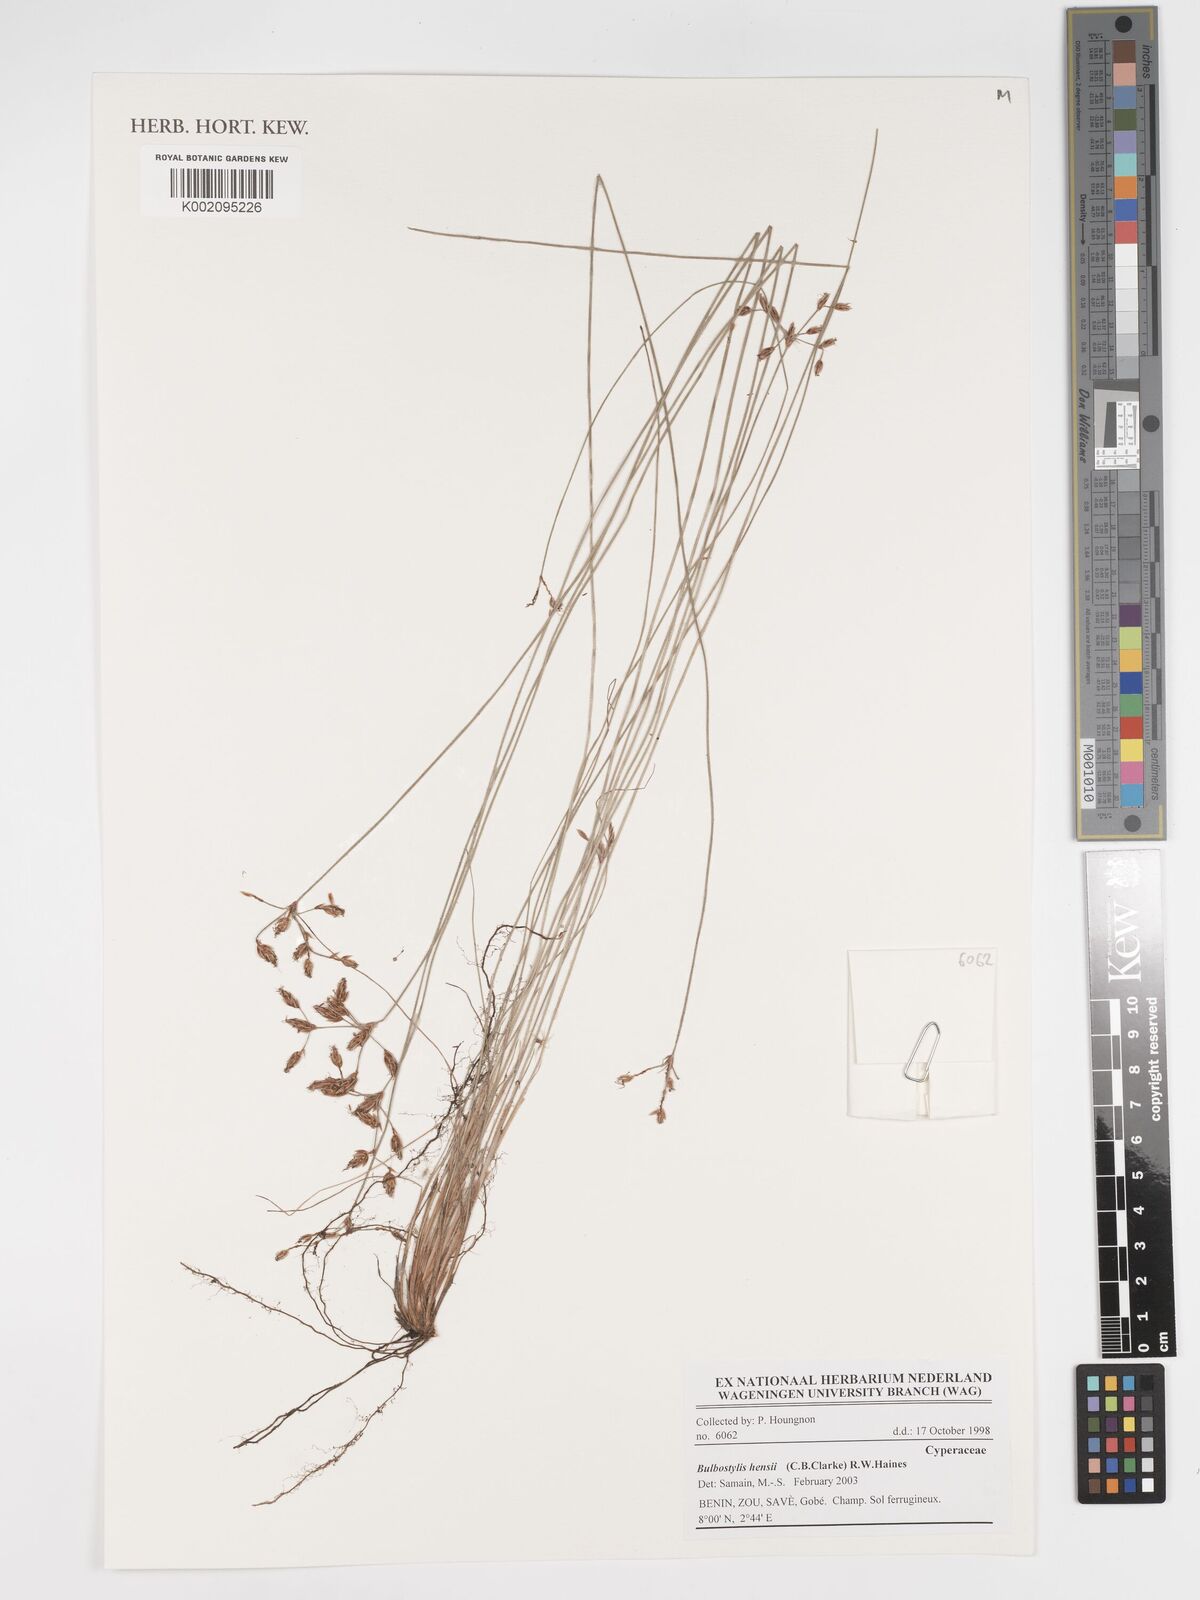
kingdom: Plantae
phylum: Tracheophyta
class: Liliopsida
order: Poales
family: Cyperaceae
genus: Bulbostylis
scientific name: Bulbostylis hensii
